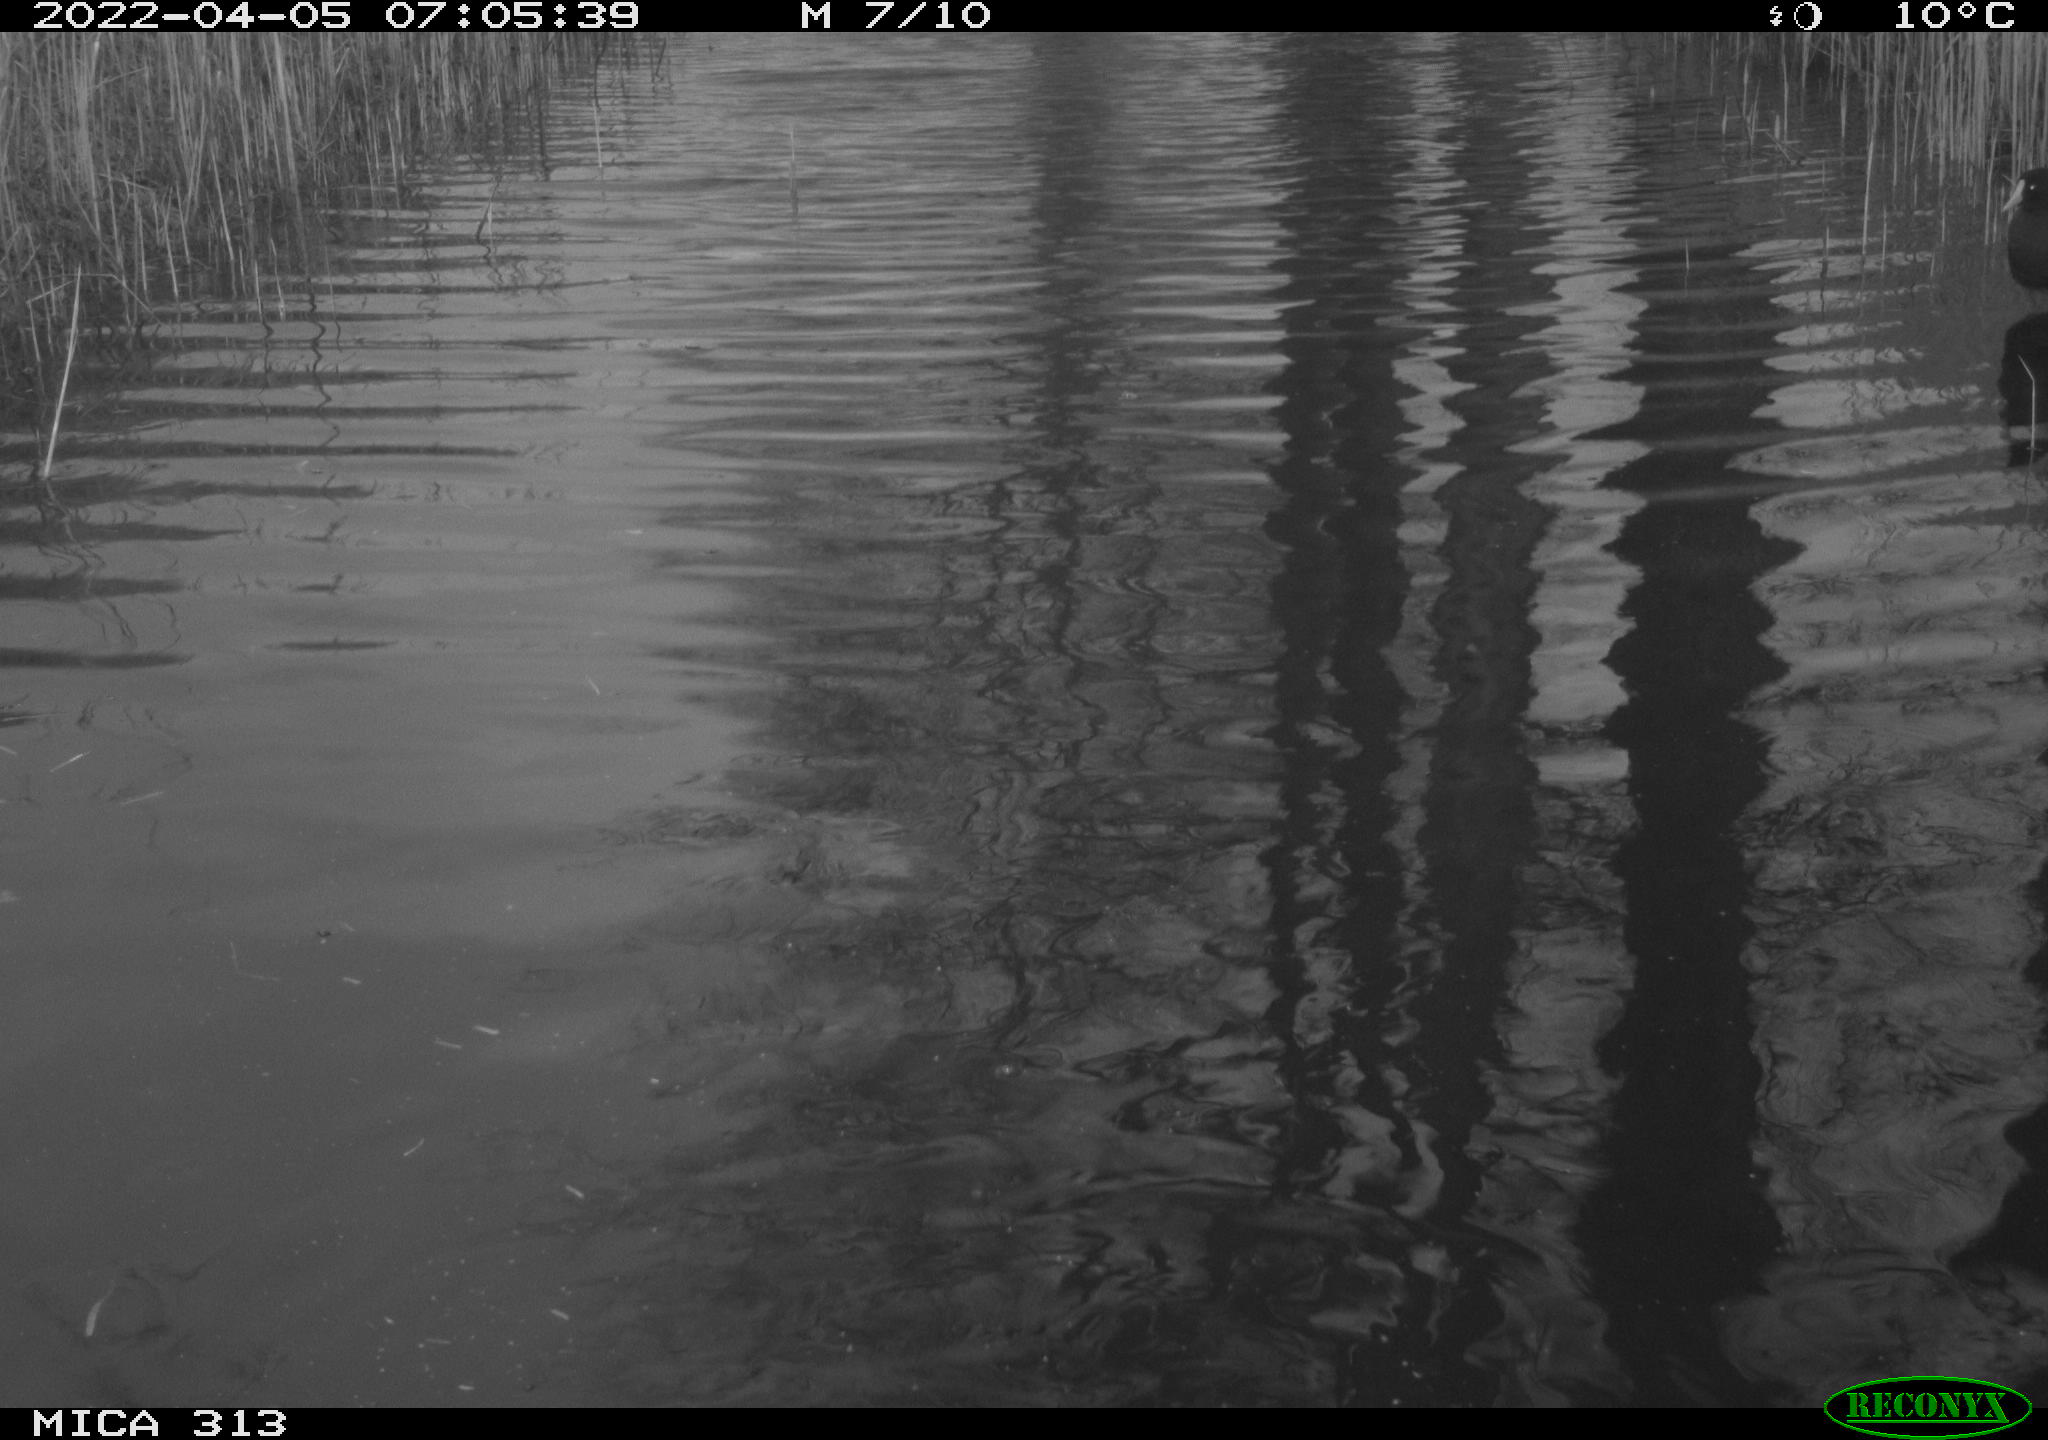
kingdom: Animalia
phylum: Chordata
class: Aves
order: Anseriformes
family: Anatidae
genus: Anas
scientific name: Anas platyrhynchos
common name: Mallard
